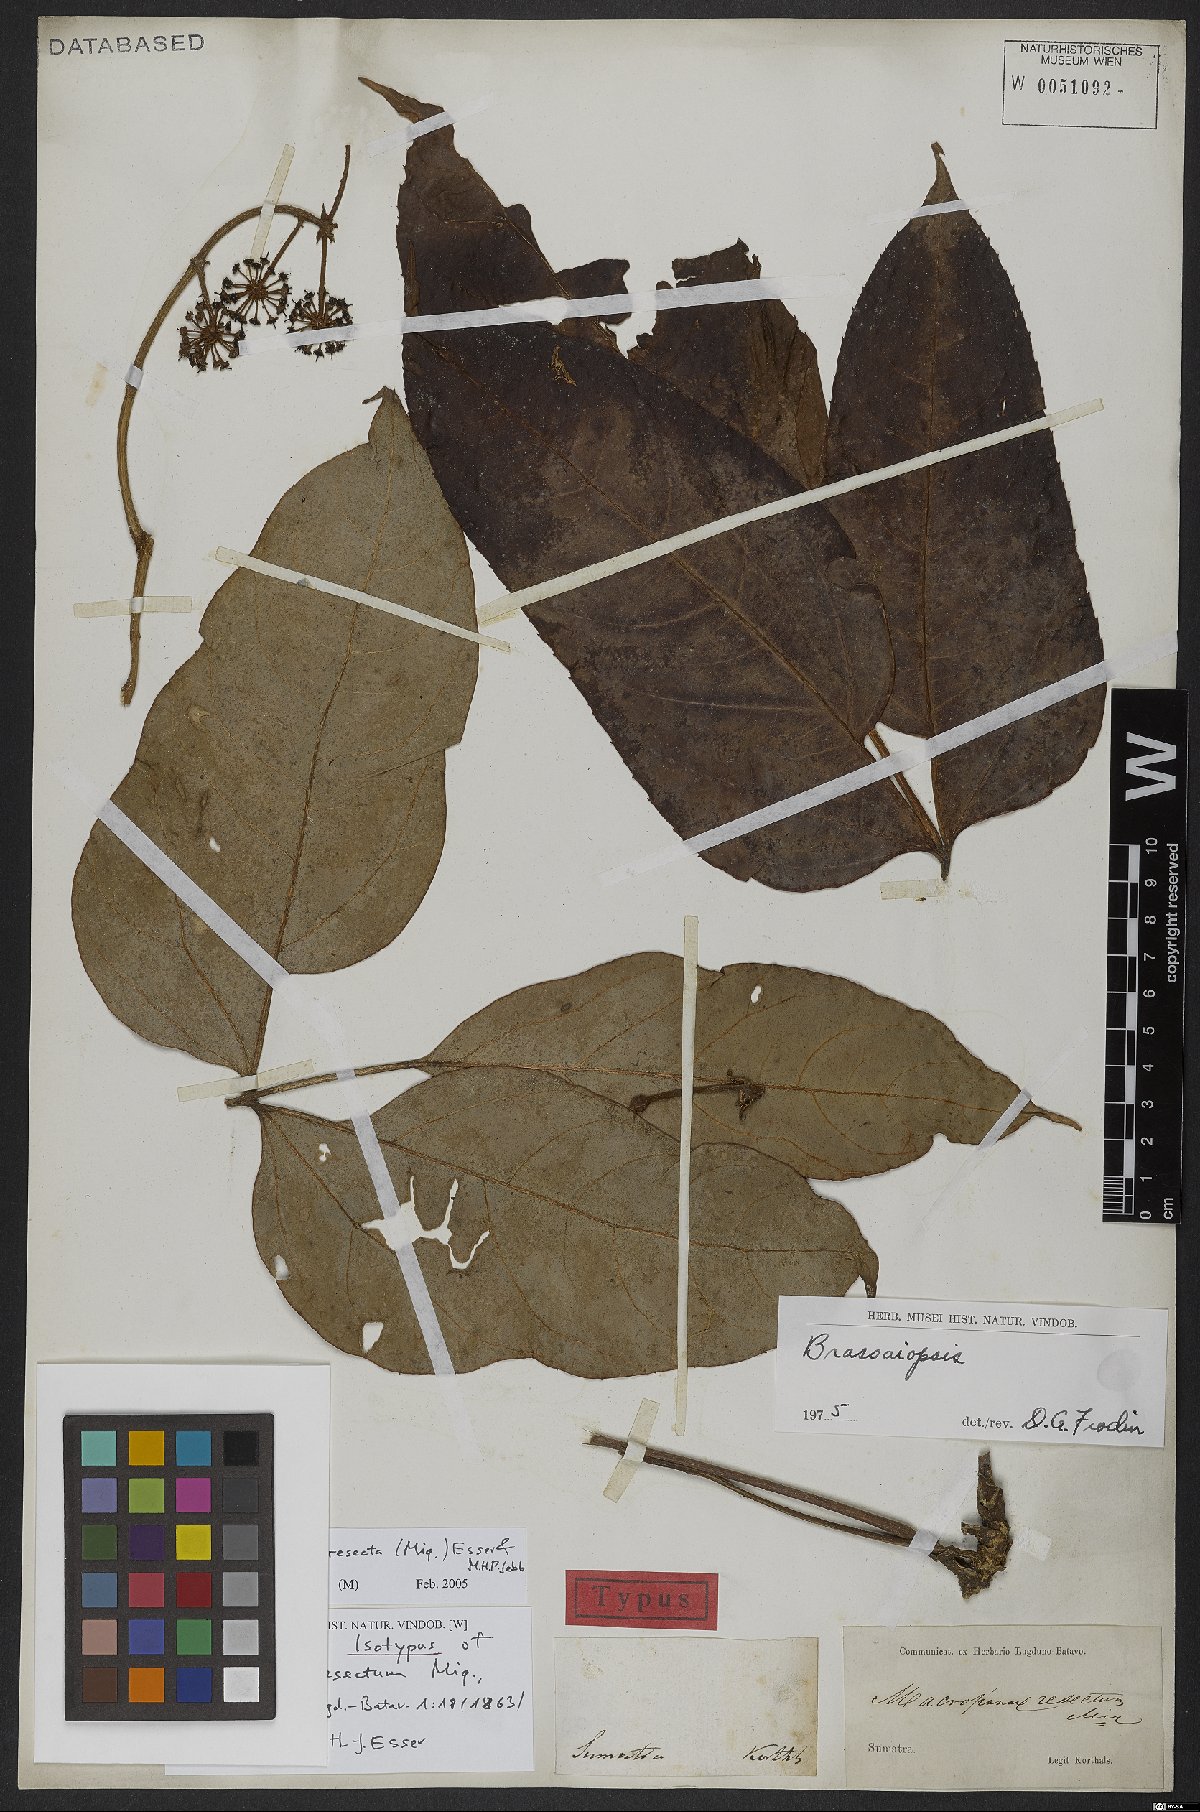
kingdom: Plantae
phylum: Tracheophyta
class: Magnoliopsida
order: Apiales
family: Araliaceae
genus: Brassaiopsis
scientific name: Brassaiopsis resecta
